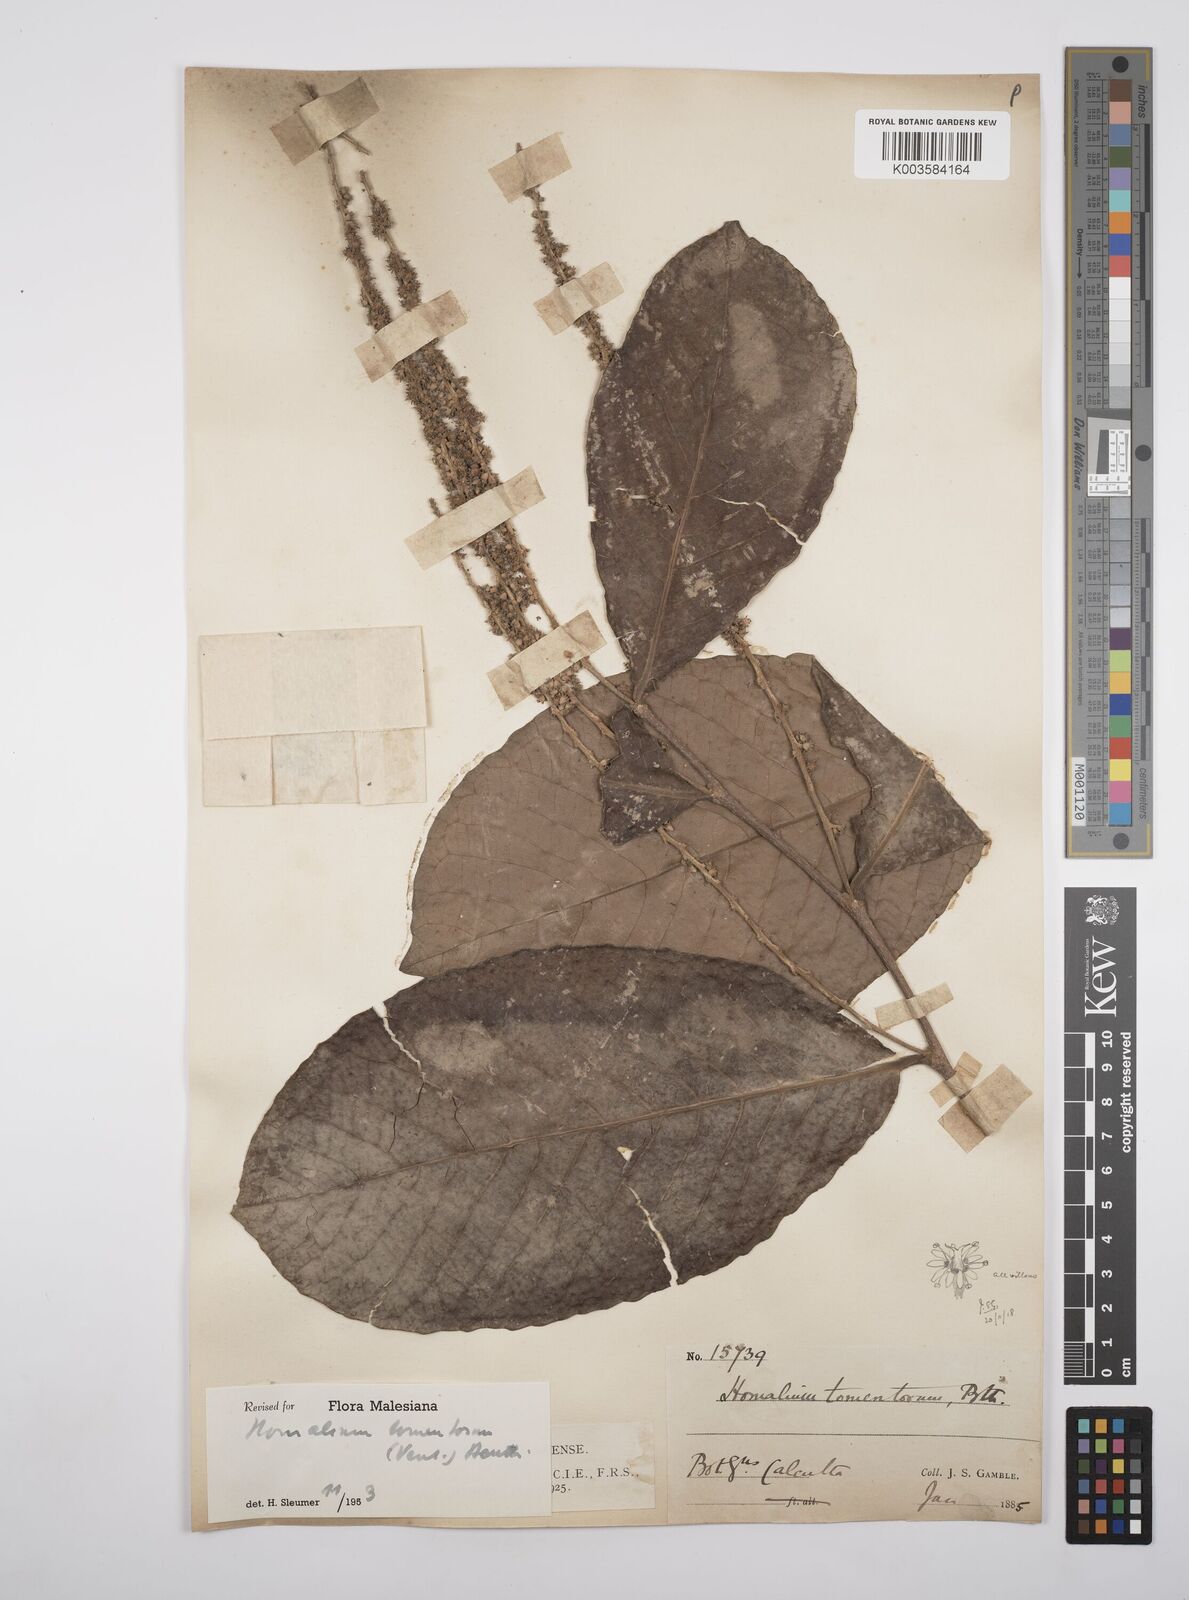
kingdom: Plantae
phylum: Tracheophyta
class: Magnoliopsida
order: Malpighiales
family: Salicaceae
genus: Homalium
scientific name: Homalium tomentosum
